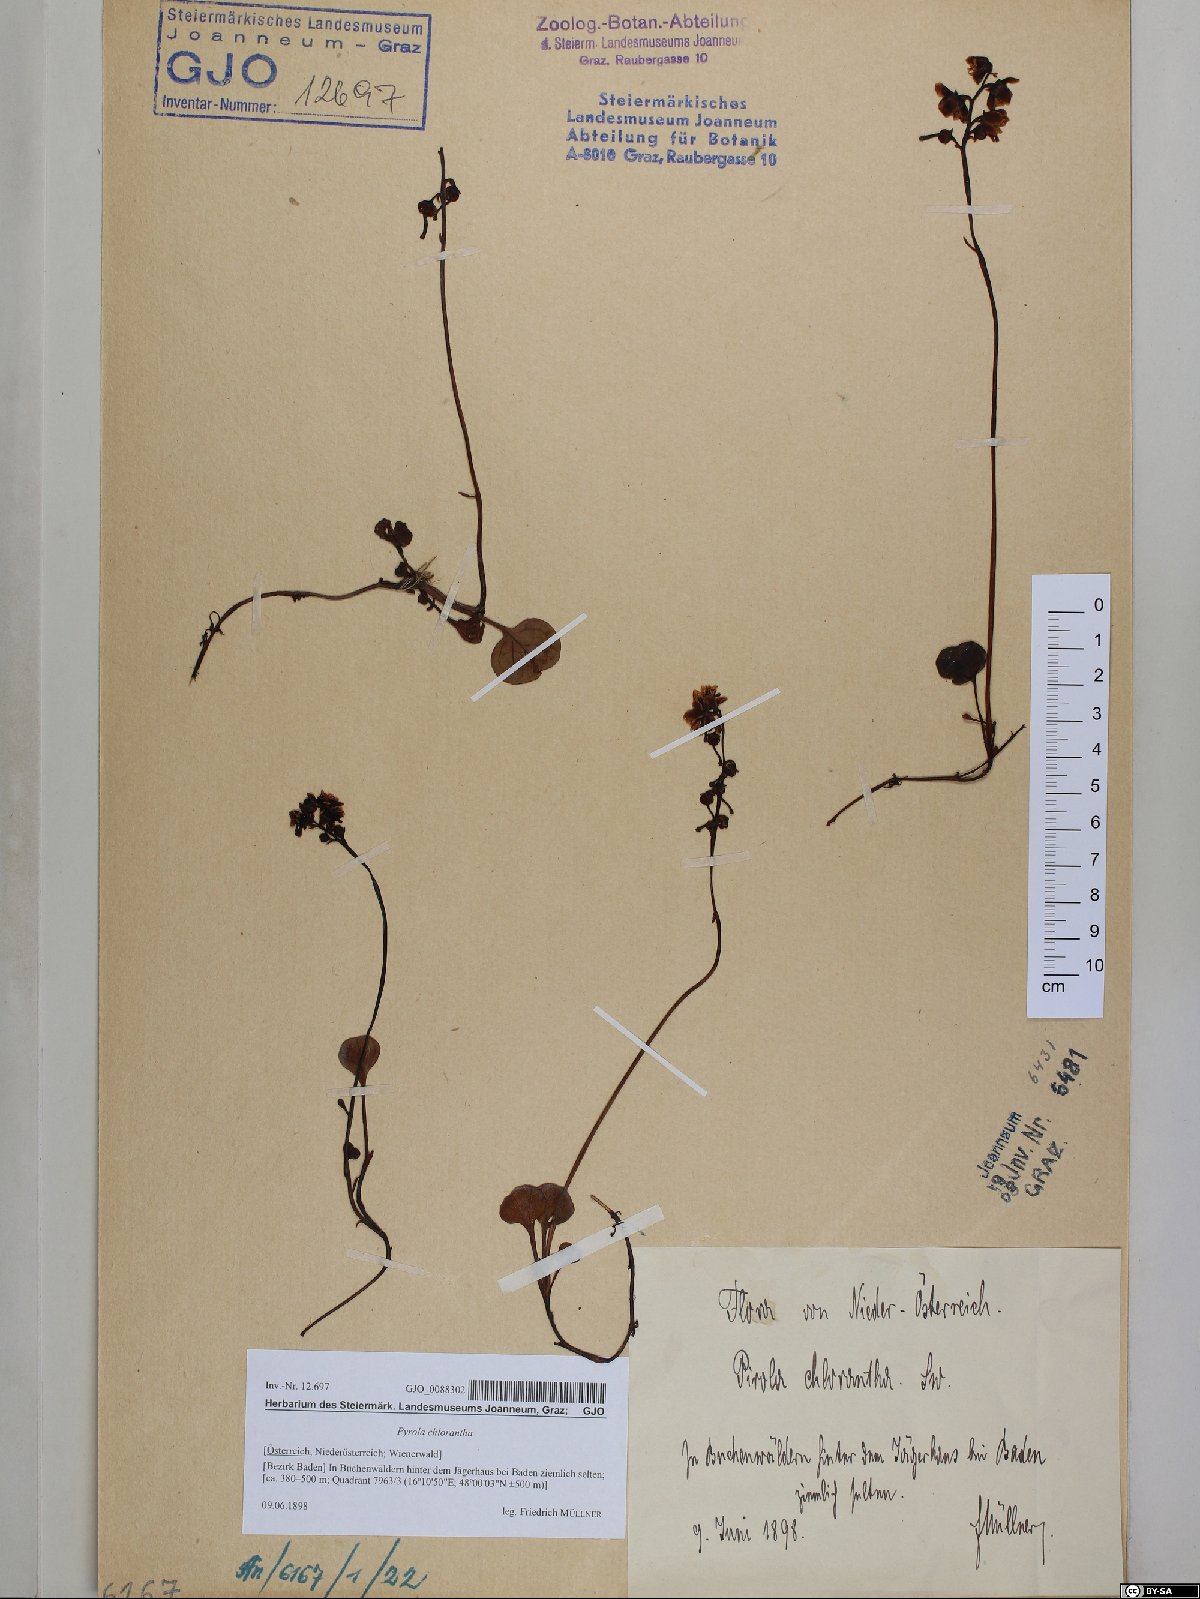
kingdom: Plantae
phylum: Tracheophyta
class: Magnoliopsida
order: Ericales
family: Ericaceae
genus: Pyrola
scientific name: Pyrola chlorantha
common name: Green wintergreen
